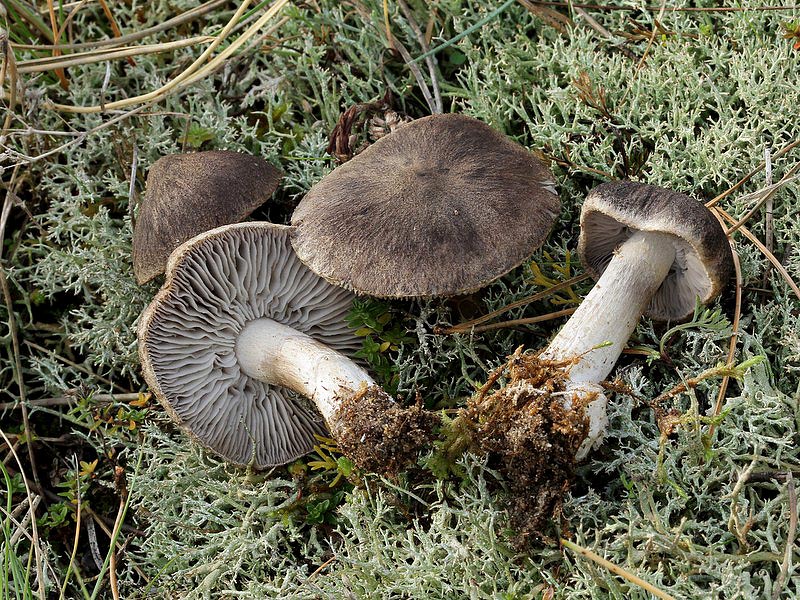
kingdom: Fungi
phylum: Basidiomycota
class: Agaricomycetes
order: Agaricales
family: Tricholomataceae
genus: Tricholoma
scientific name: Tricholoma terreum
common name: jordfarvet ridderhat
